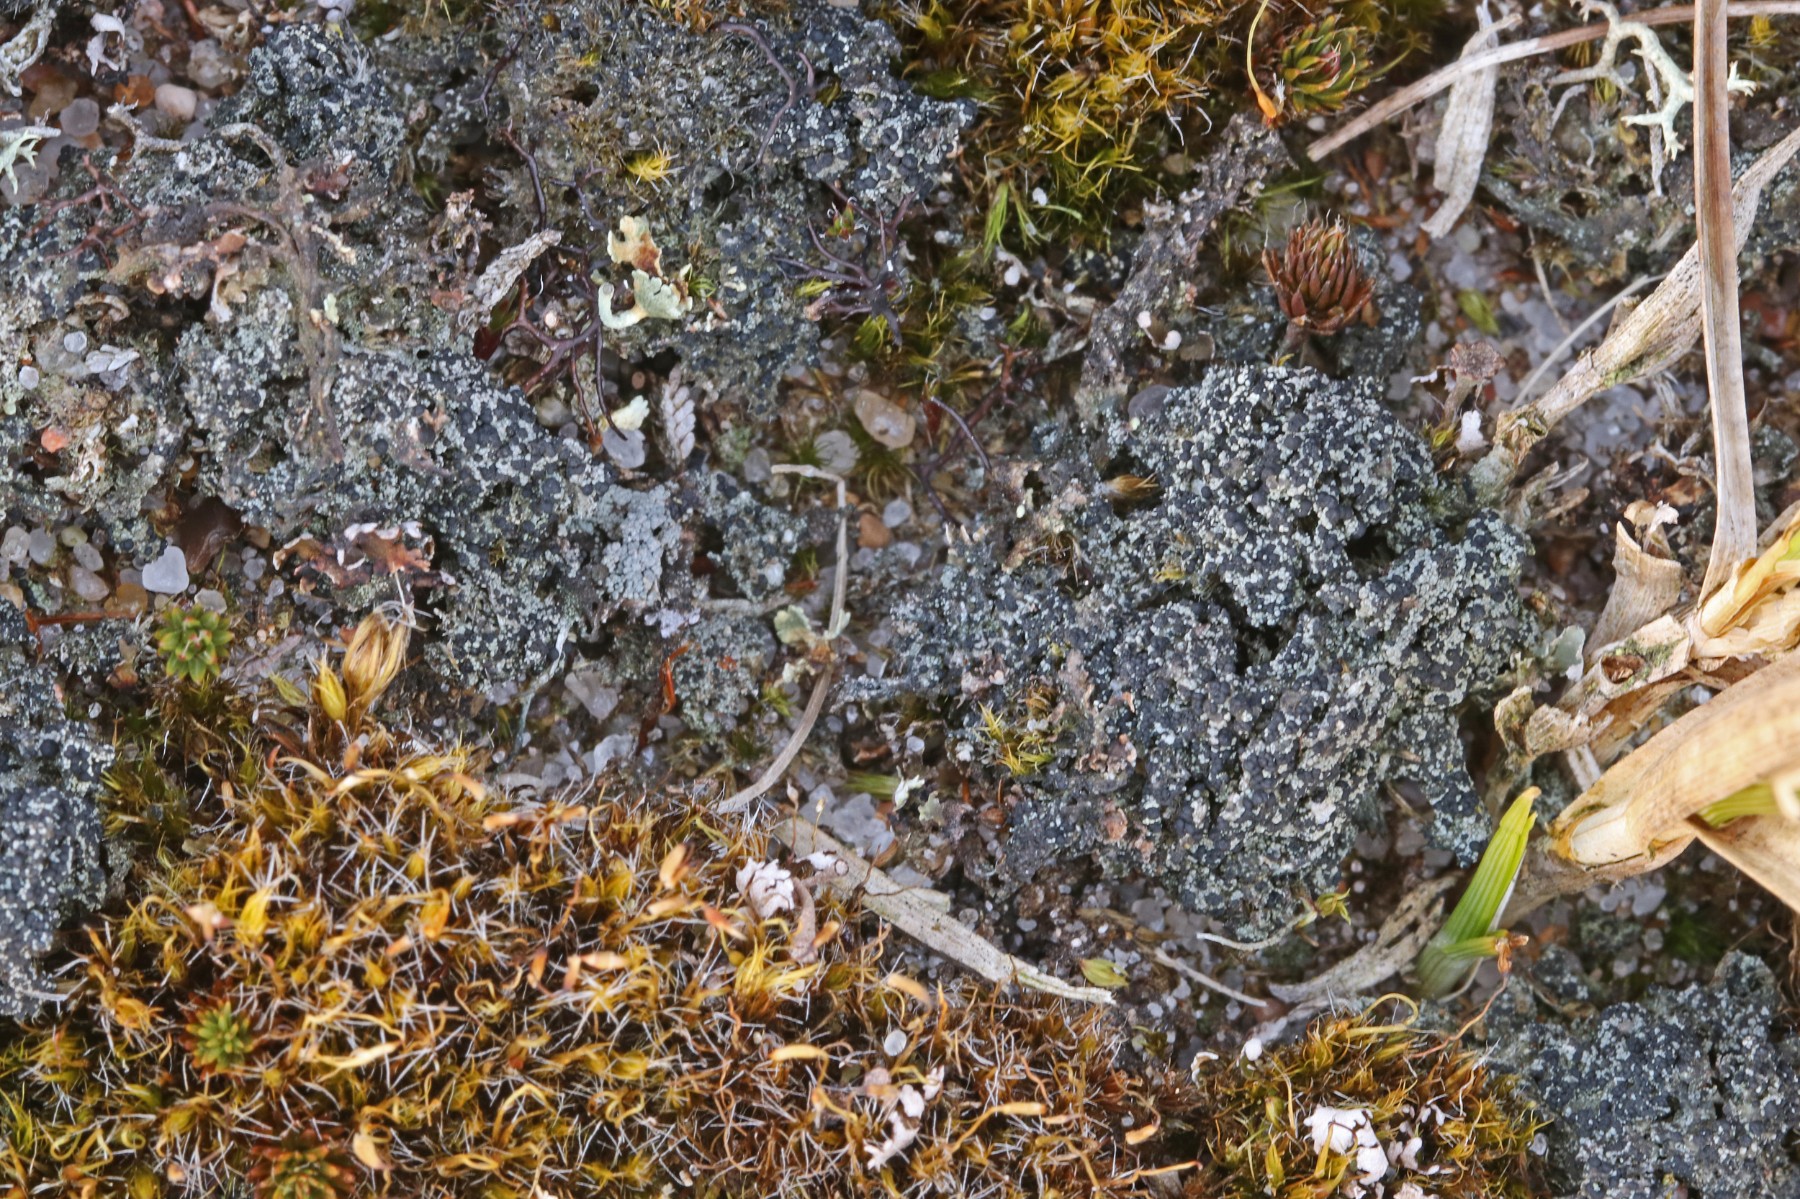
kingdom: Fungi
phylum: Ascomycota
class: Lecanoromycetes
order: Lecanorales
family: Byssolomataceae
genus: Micarea
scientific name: Micarea lignaria
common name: tørve-knaplav
